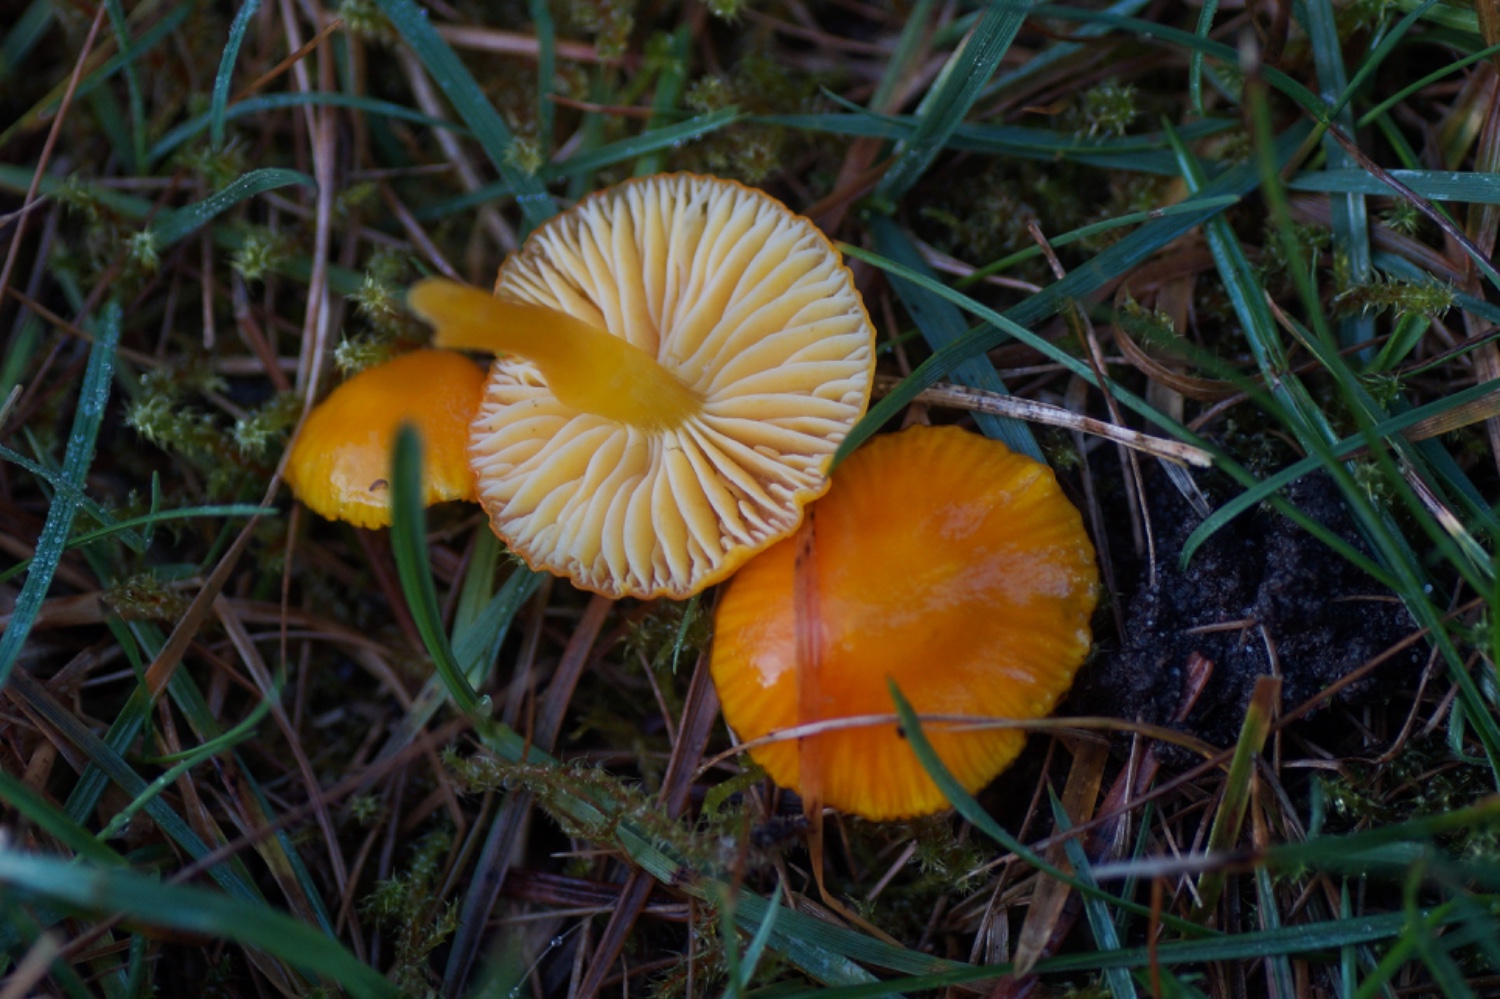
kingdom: Fungi
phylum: Basidiomycota
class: Agaricomycetes
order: Agaricales
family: Hygrophoraceae
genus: Hygrocybe
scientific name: Hygrocybe ceracea
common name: voksgul vokshat
